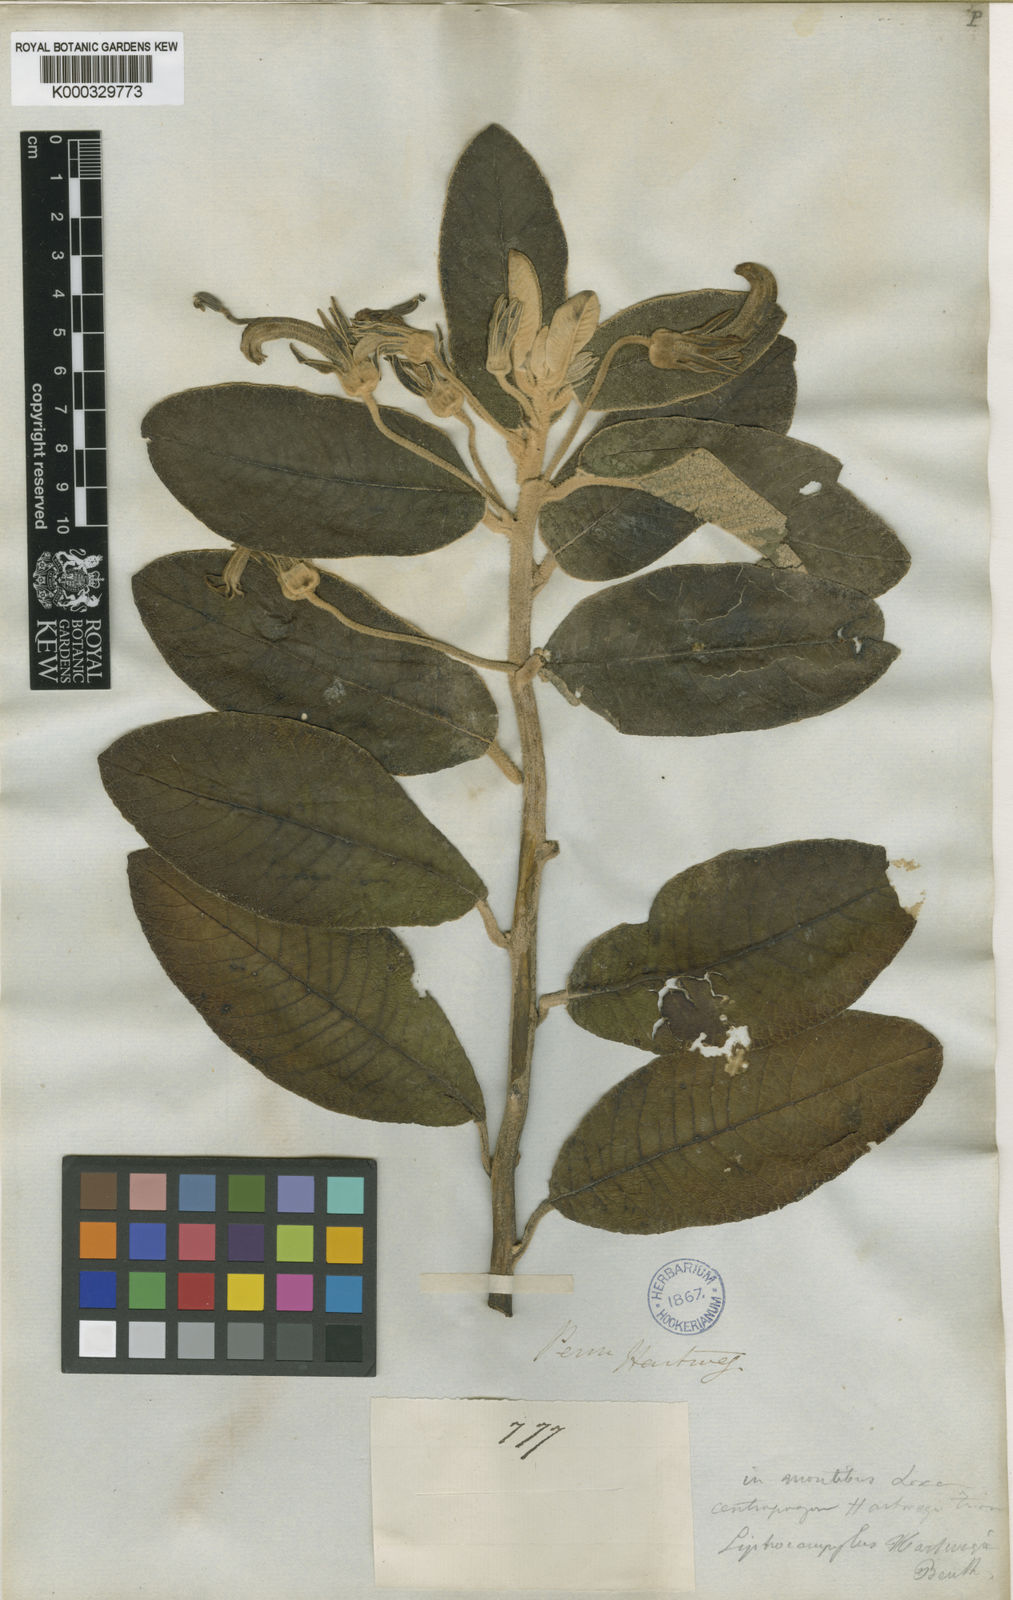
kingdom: Plantae
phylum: Tracheophyta
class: Magnoliopsida
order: Asterales
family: Campanulaceae
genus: Centropogon
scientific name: Centropogon hartwegii
